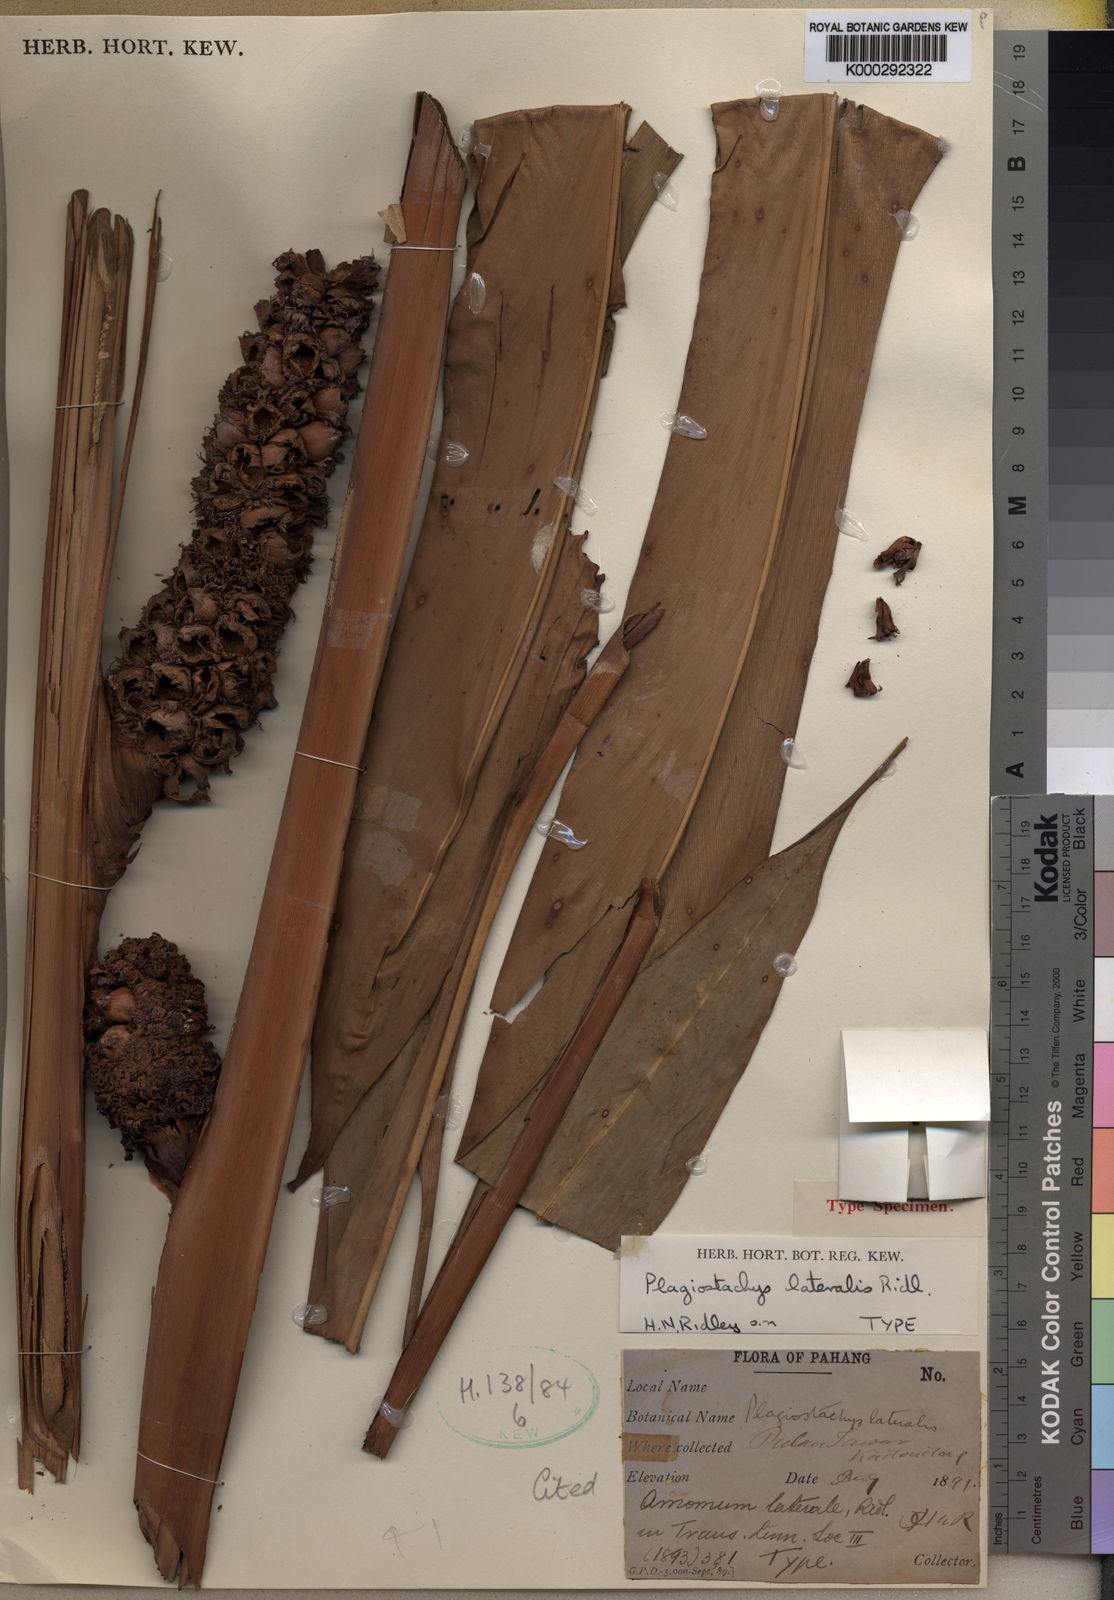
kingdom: Plantae
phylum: Tracheophyta
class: Liliopsida
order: Zingiberales
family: Zingiberaceae
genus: Plagiostachys
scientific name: Plagiostachys lateralis
